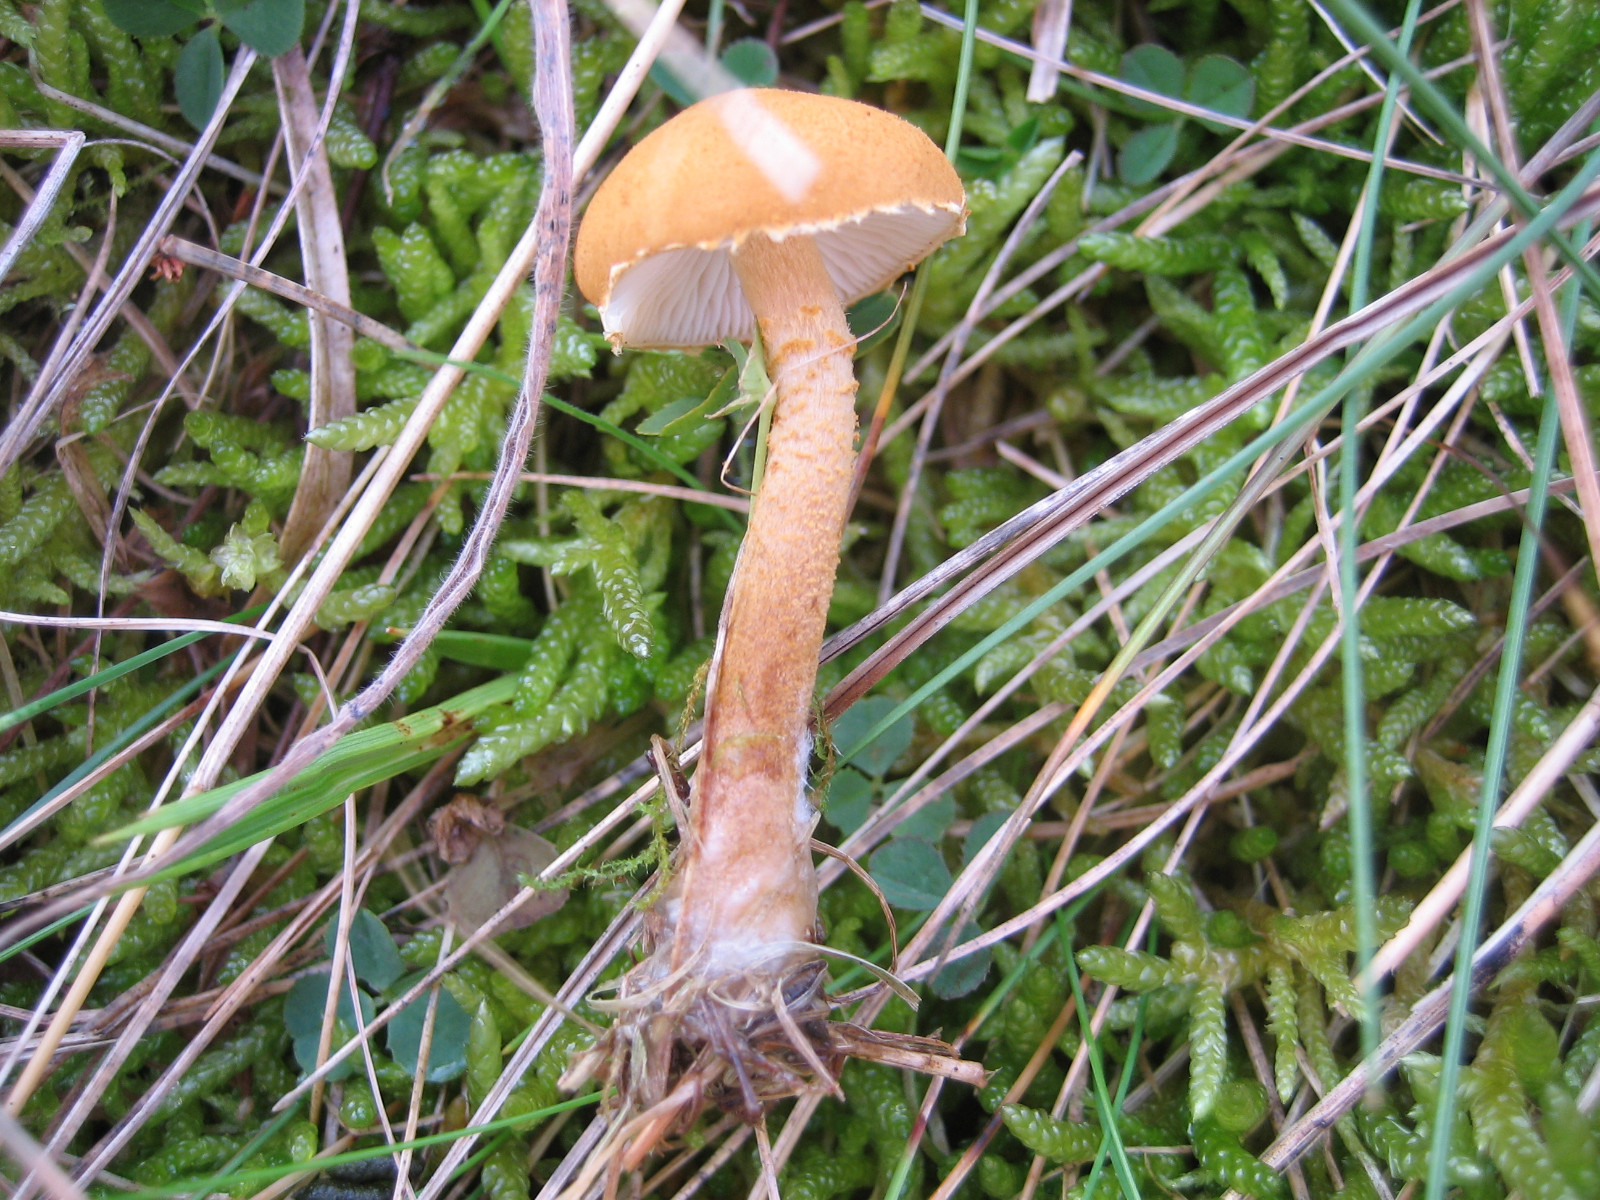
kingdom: Fungi
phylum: Basidiomycota
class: Agaricomycetes
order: Agaricales
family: Tricholomataceae
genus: Cystoderma
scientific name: Cystoderma amianthinum
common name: okkergul grynhat
